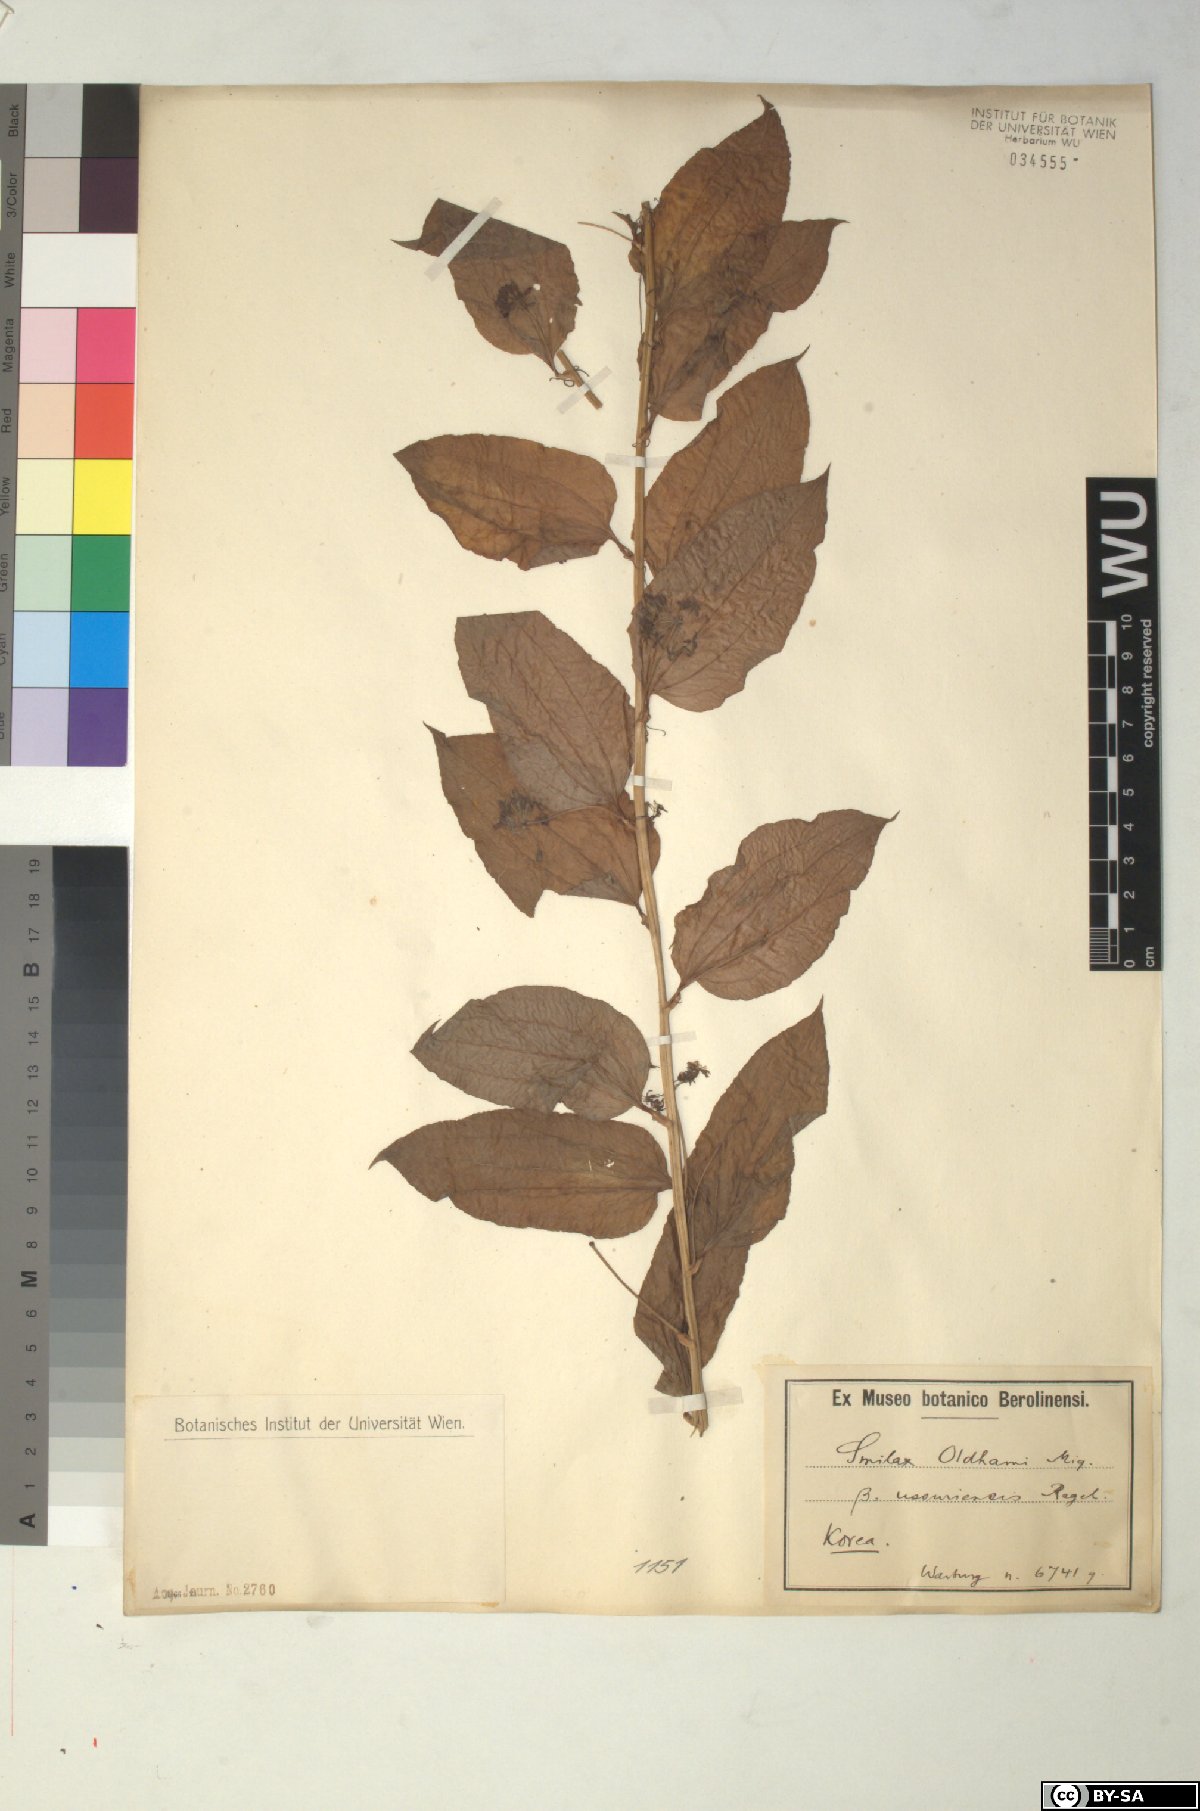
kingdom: Plantae
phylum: Tracheophyta
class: Liliopsida
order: Liliales
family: Smilacaceae
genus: Smilax
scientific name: Smilax riparia
